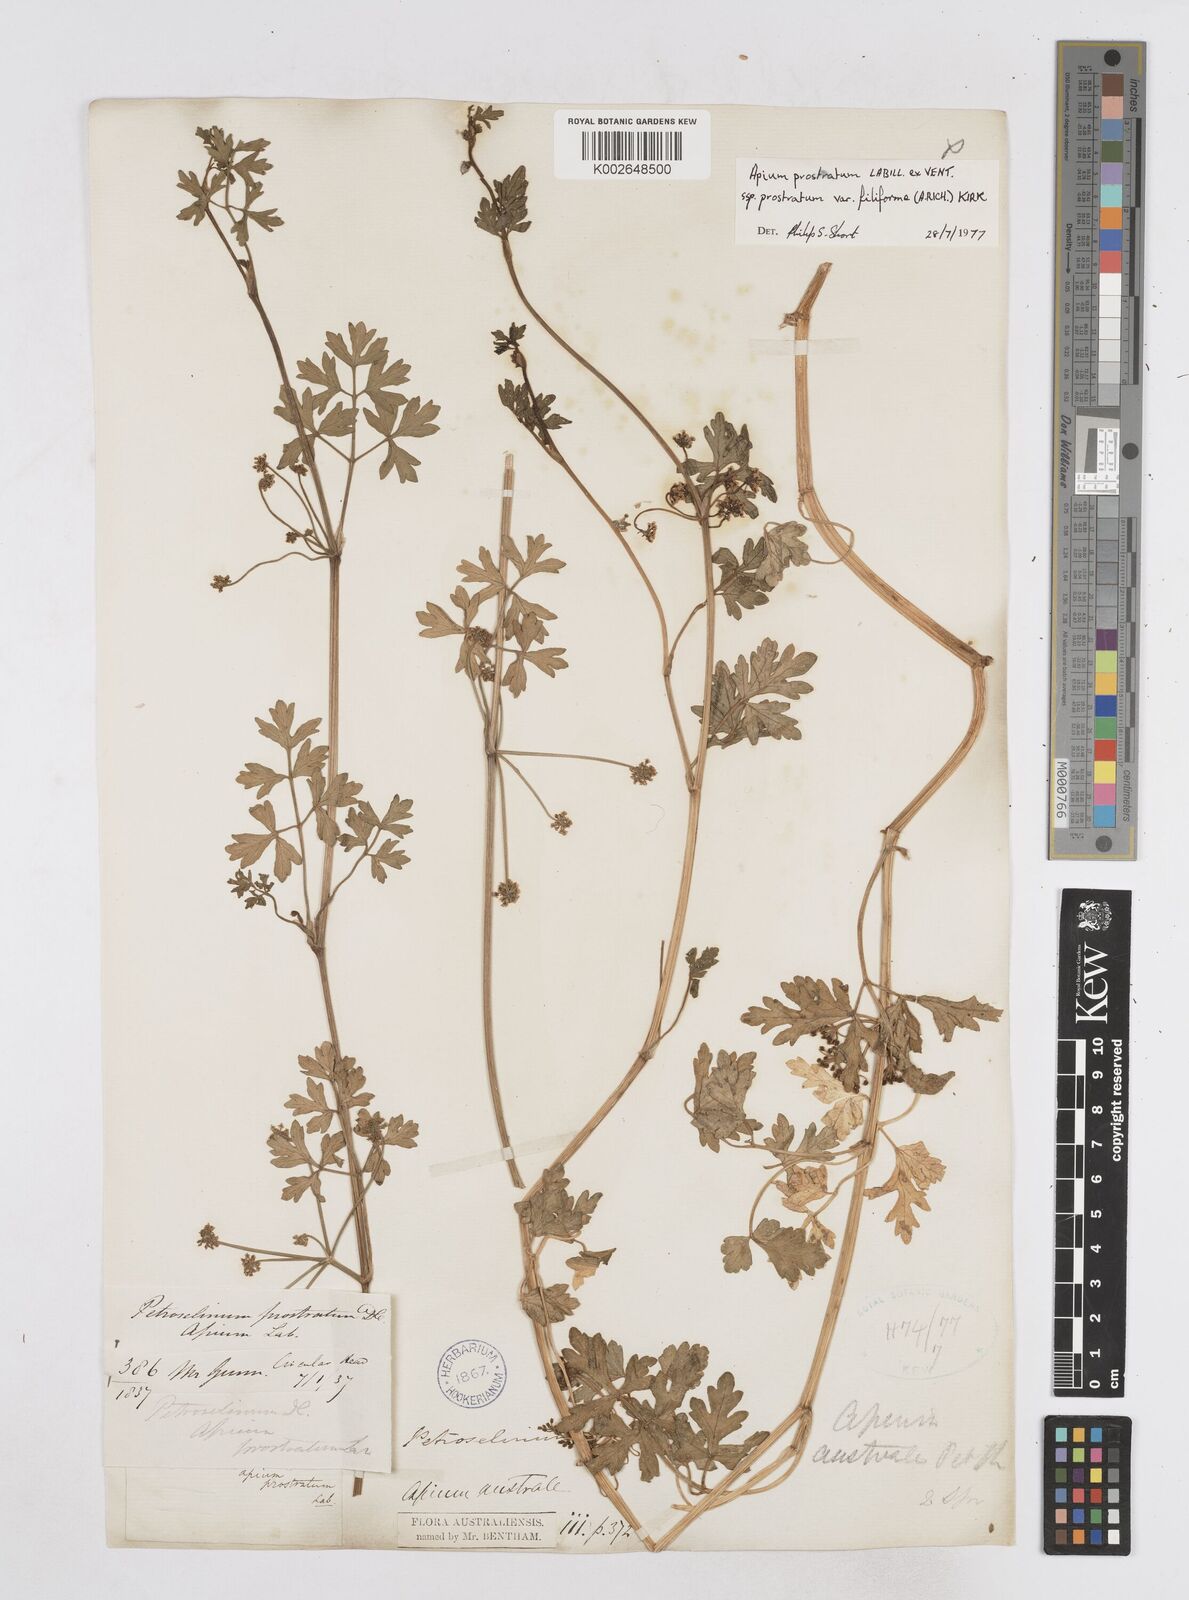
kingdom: Plantae
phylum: Tracheophyta
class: Magnoliopsida
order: Apiales
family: Apiaceae
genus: Apium
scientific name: Apium prostratum
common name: Prostrate marshwort
